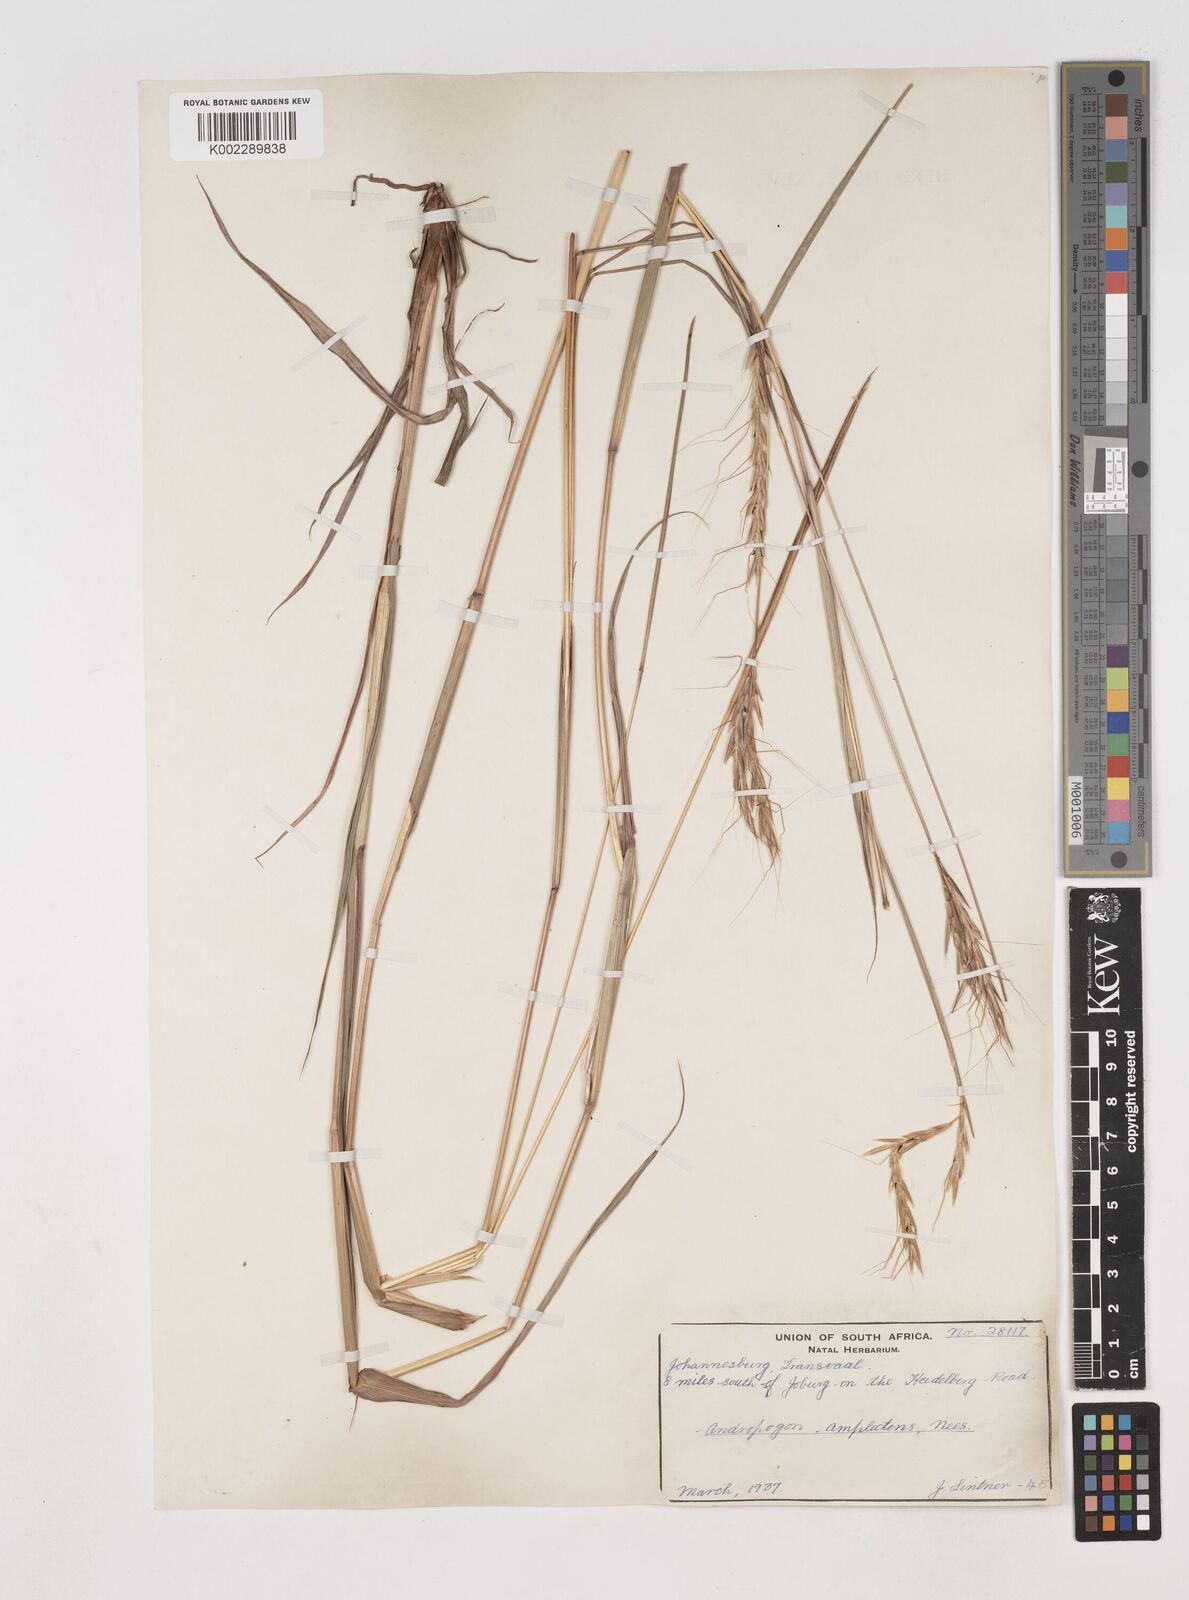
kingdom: Plantae
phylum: Tracheophyta
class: Liliopsida
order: Poales
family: Poaceae
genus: Diheteropogon
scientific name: Diheteropogon amplectens
